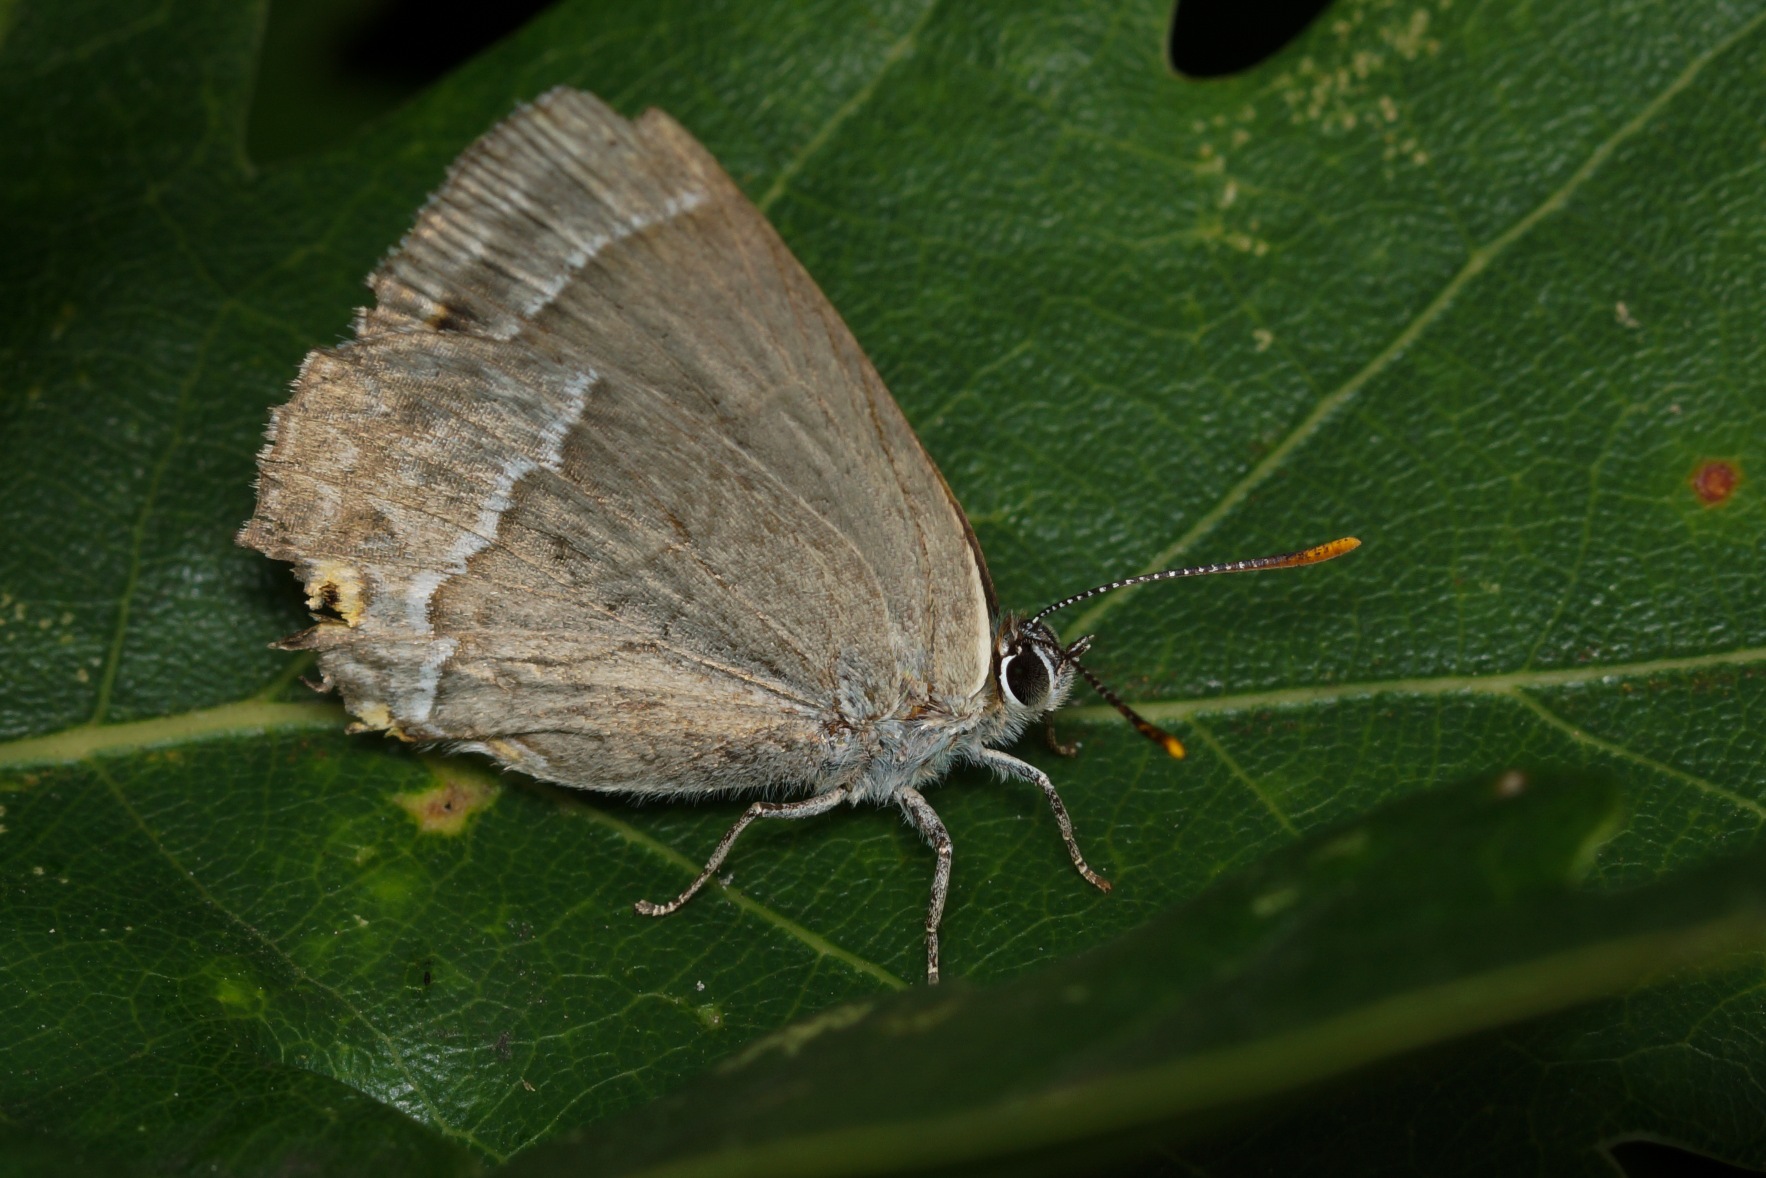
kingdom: Animalia
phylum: Arthropoda
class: Insecta
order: Lepidoptera
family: Lycaenidae
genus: Quercusia
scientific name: Quercusia quercus
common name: Blåhale
